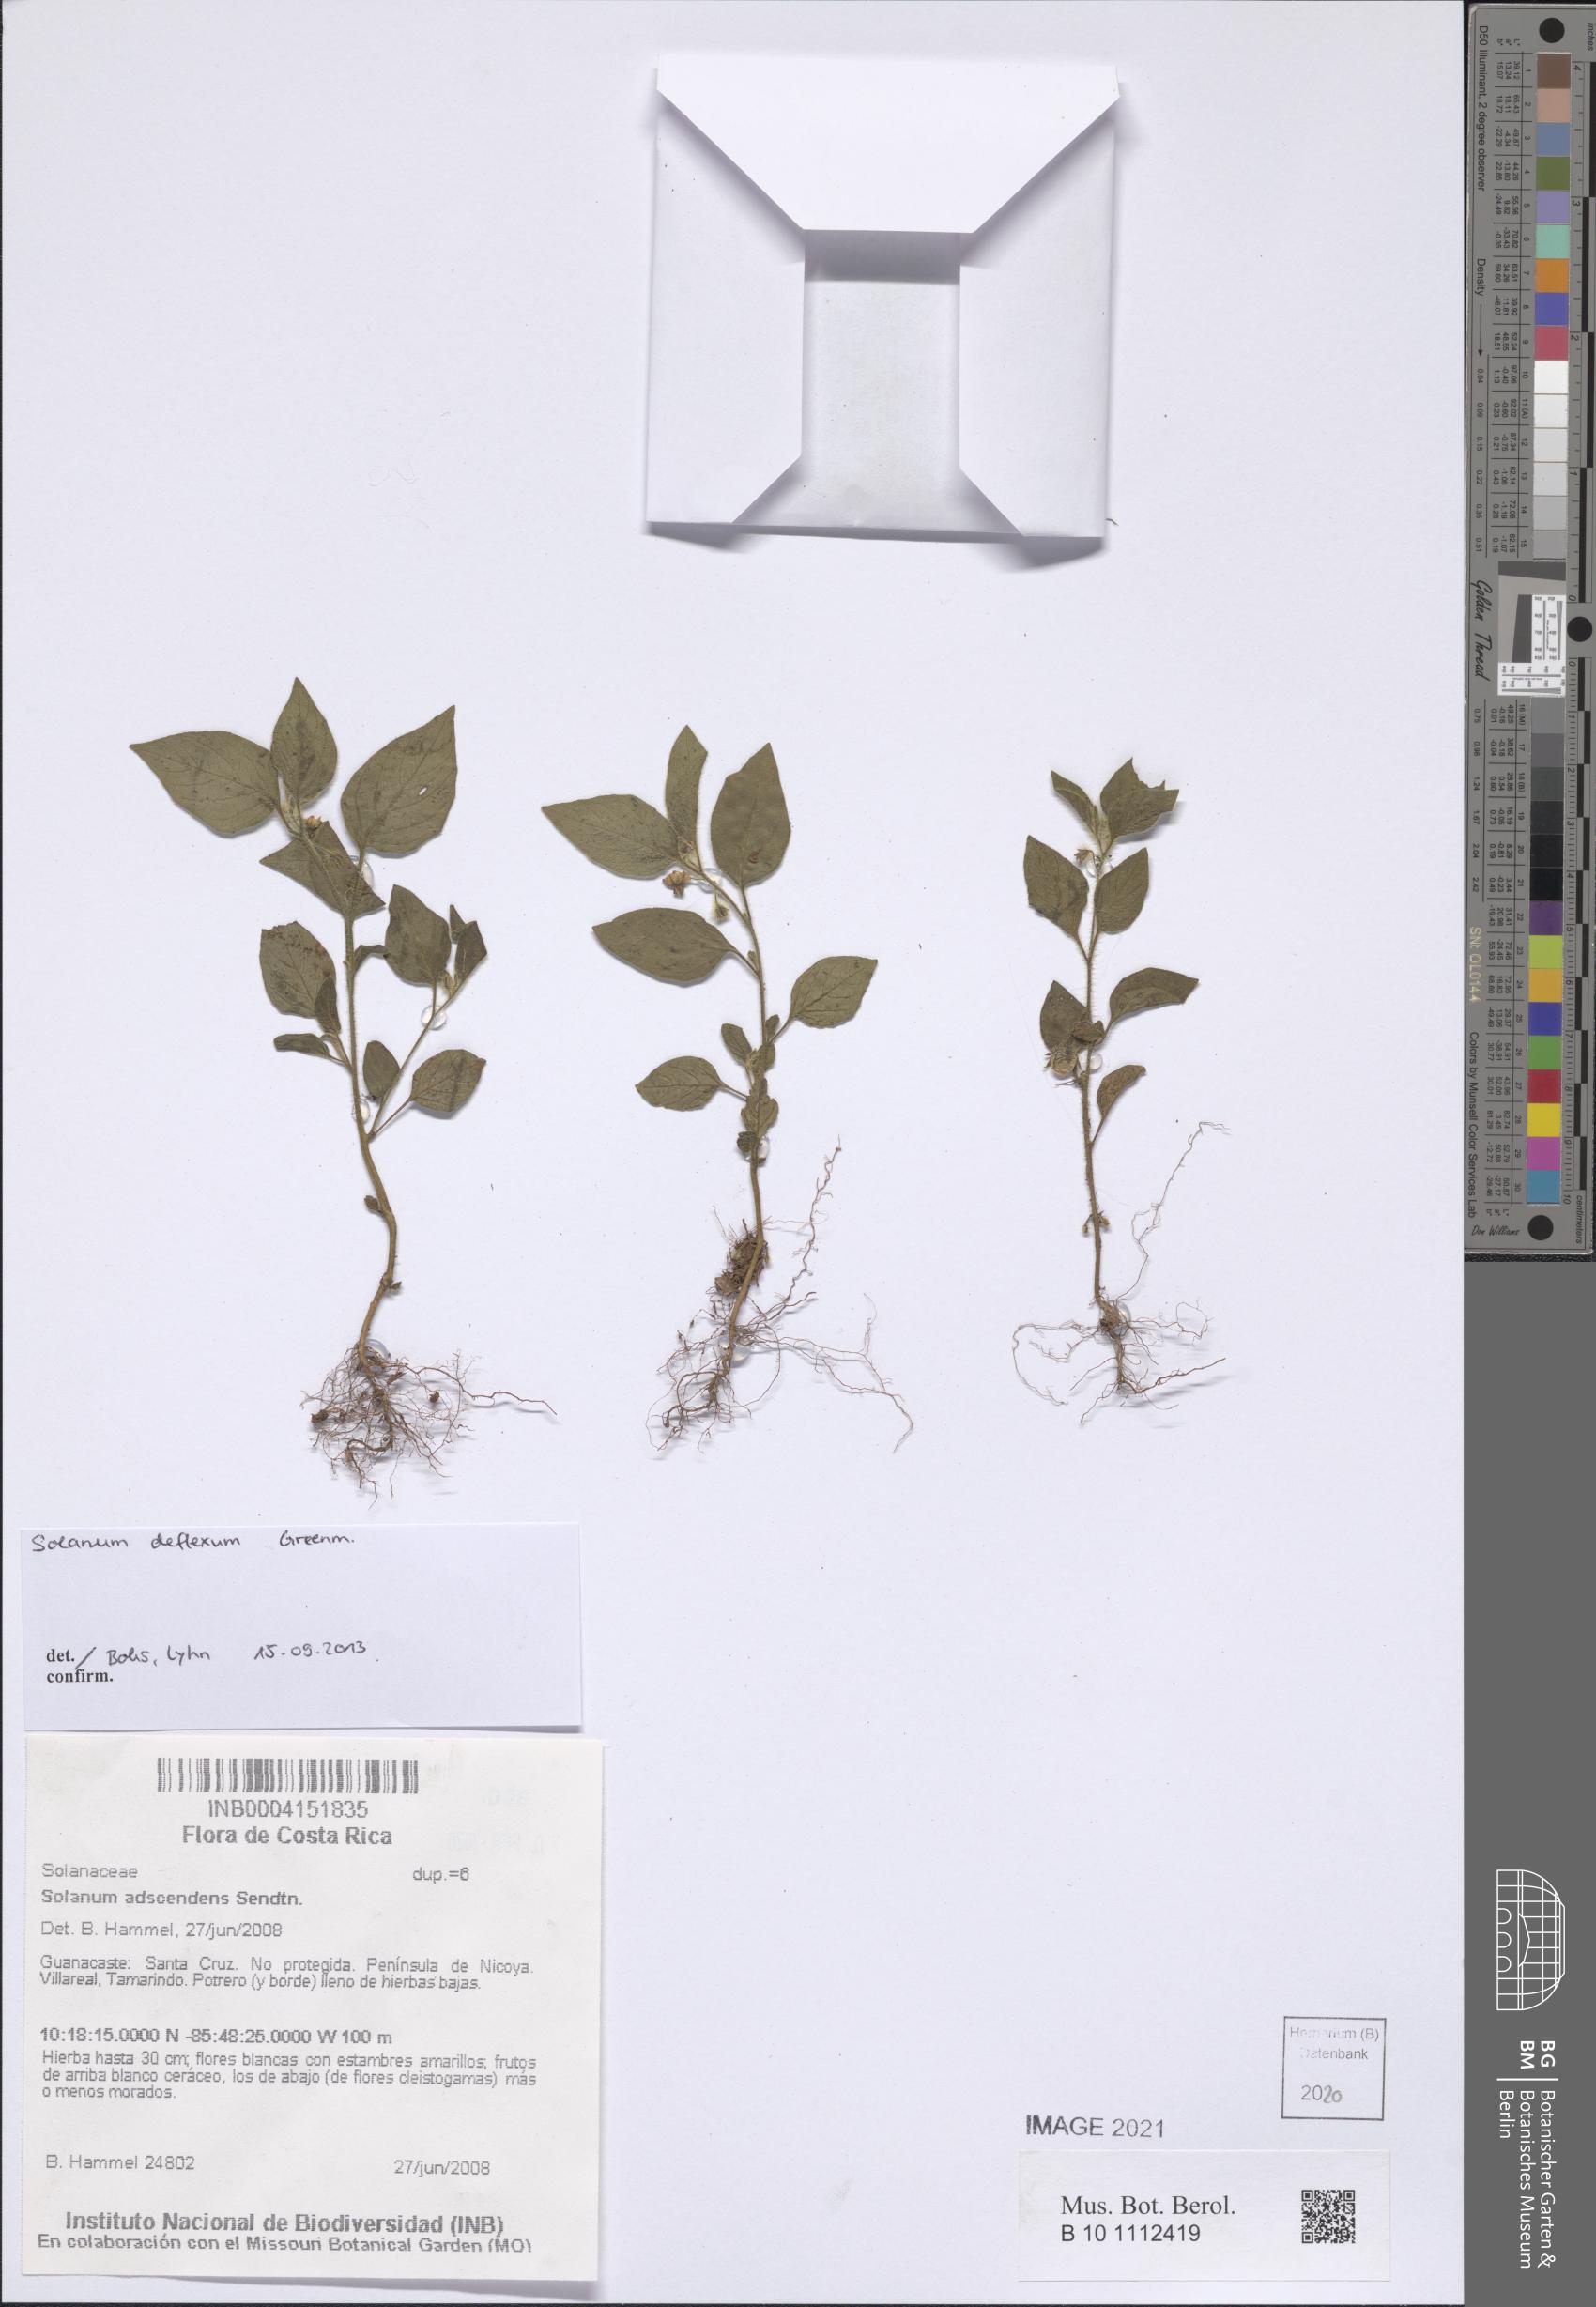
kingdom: Plantae
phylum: Tracheophyta
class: Magnoliopsida
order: Solanales
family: Solanaceae
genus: Solanum
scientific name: Solanum deflexum
